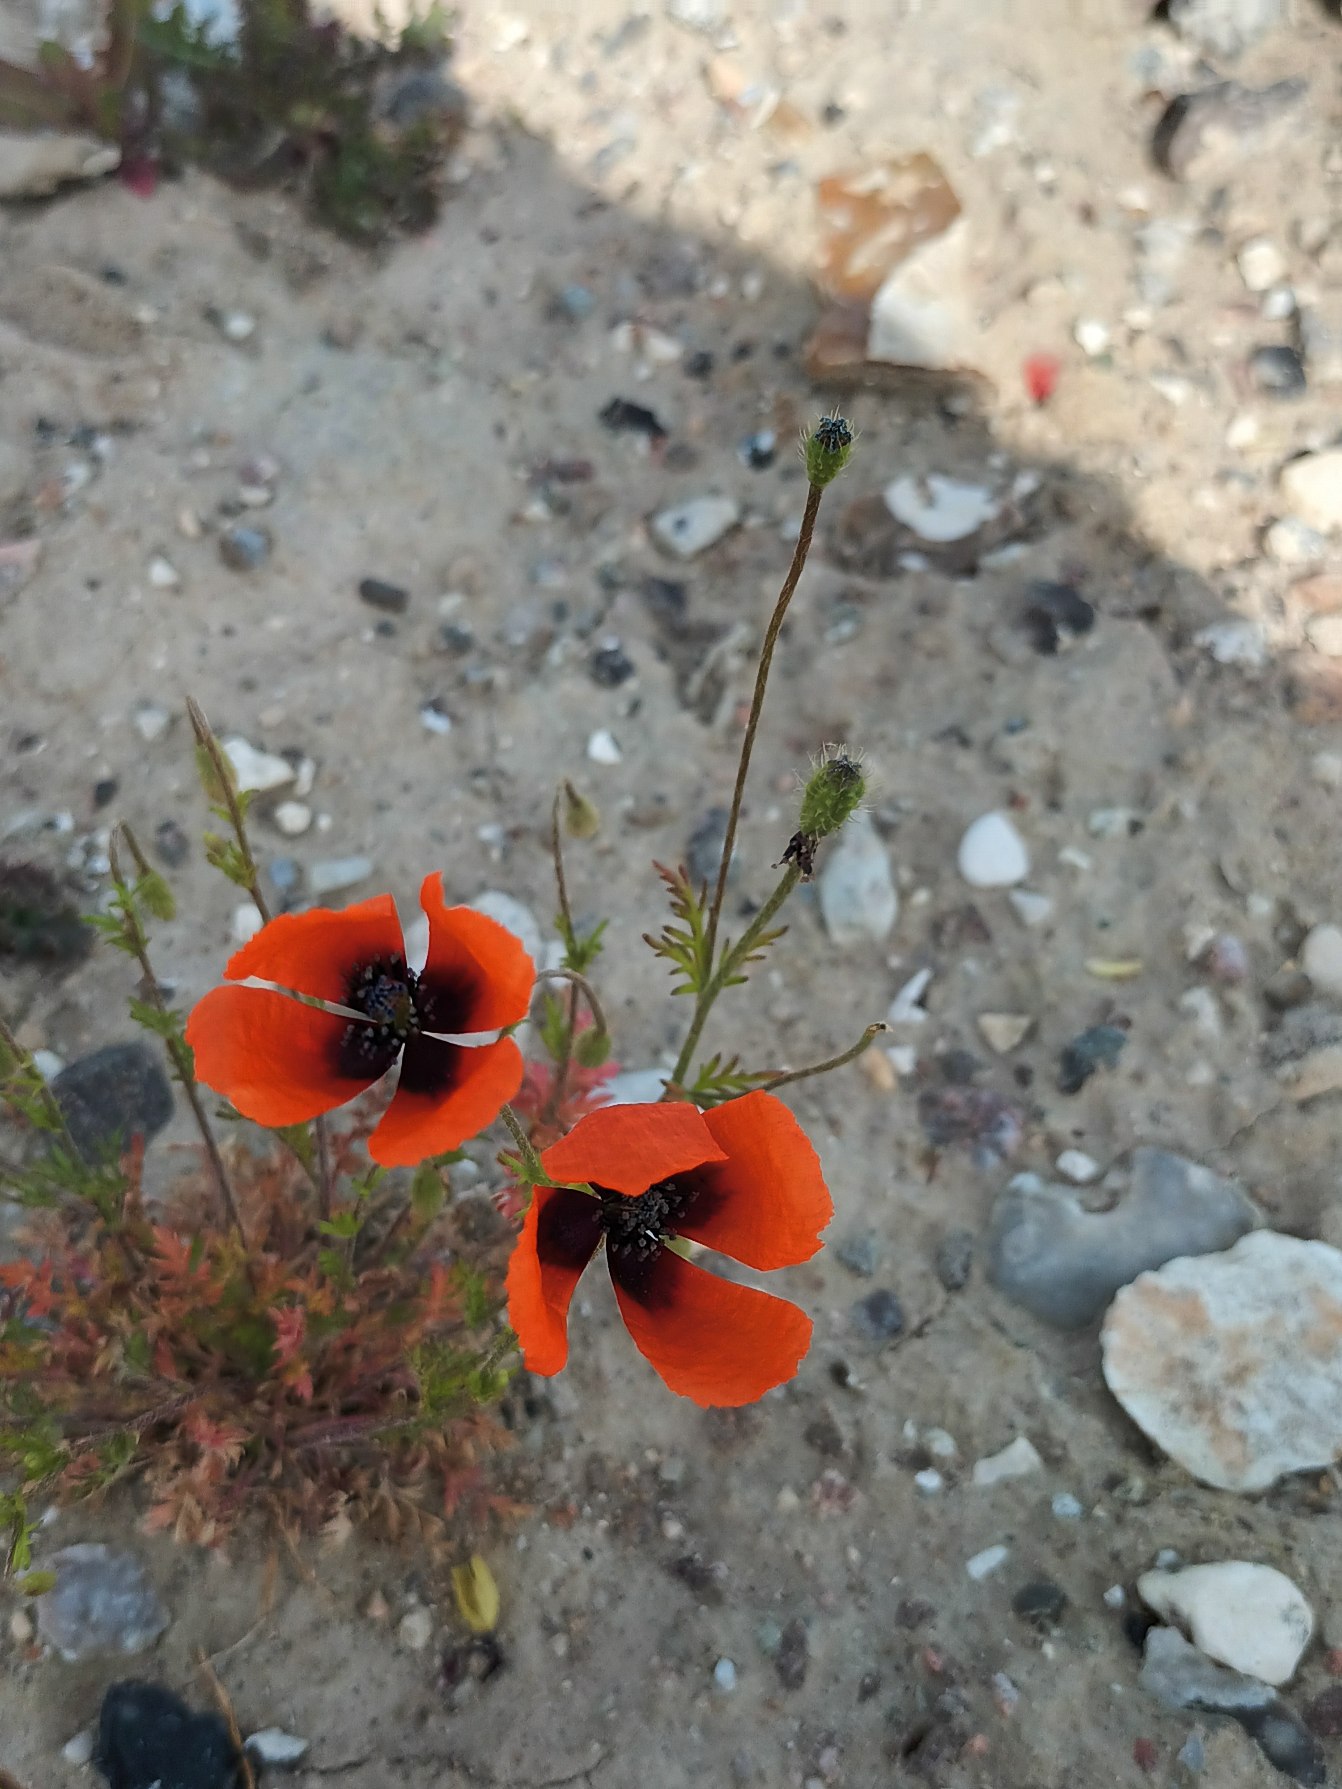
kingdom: Plantae
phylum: Tracheophyta
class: Magnoliopsida
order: Ranunculales
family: Papaveraceae
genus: Roemeria
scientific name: Roemeria argemone
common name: Kølle-valmue
